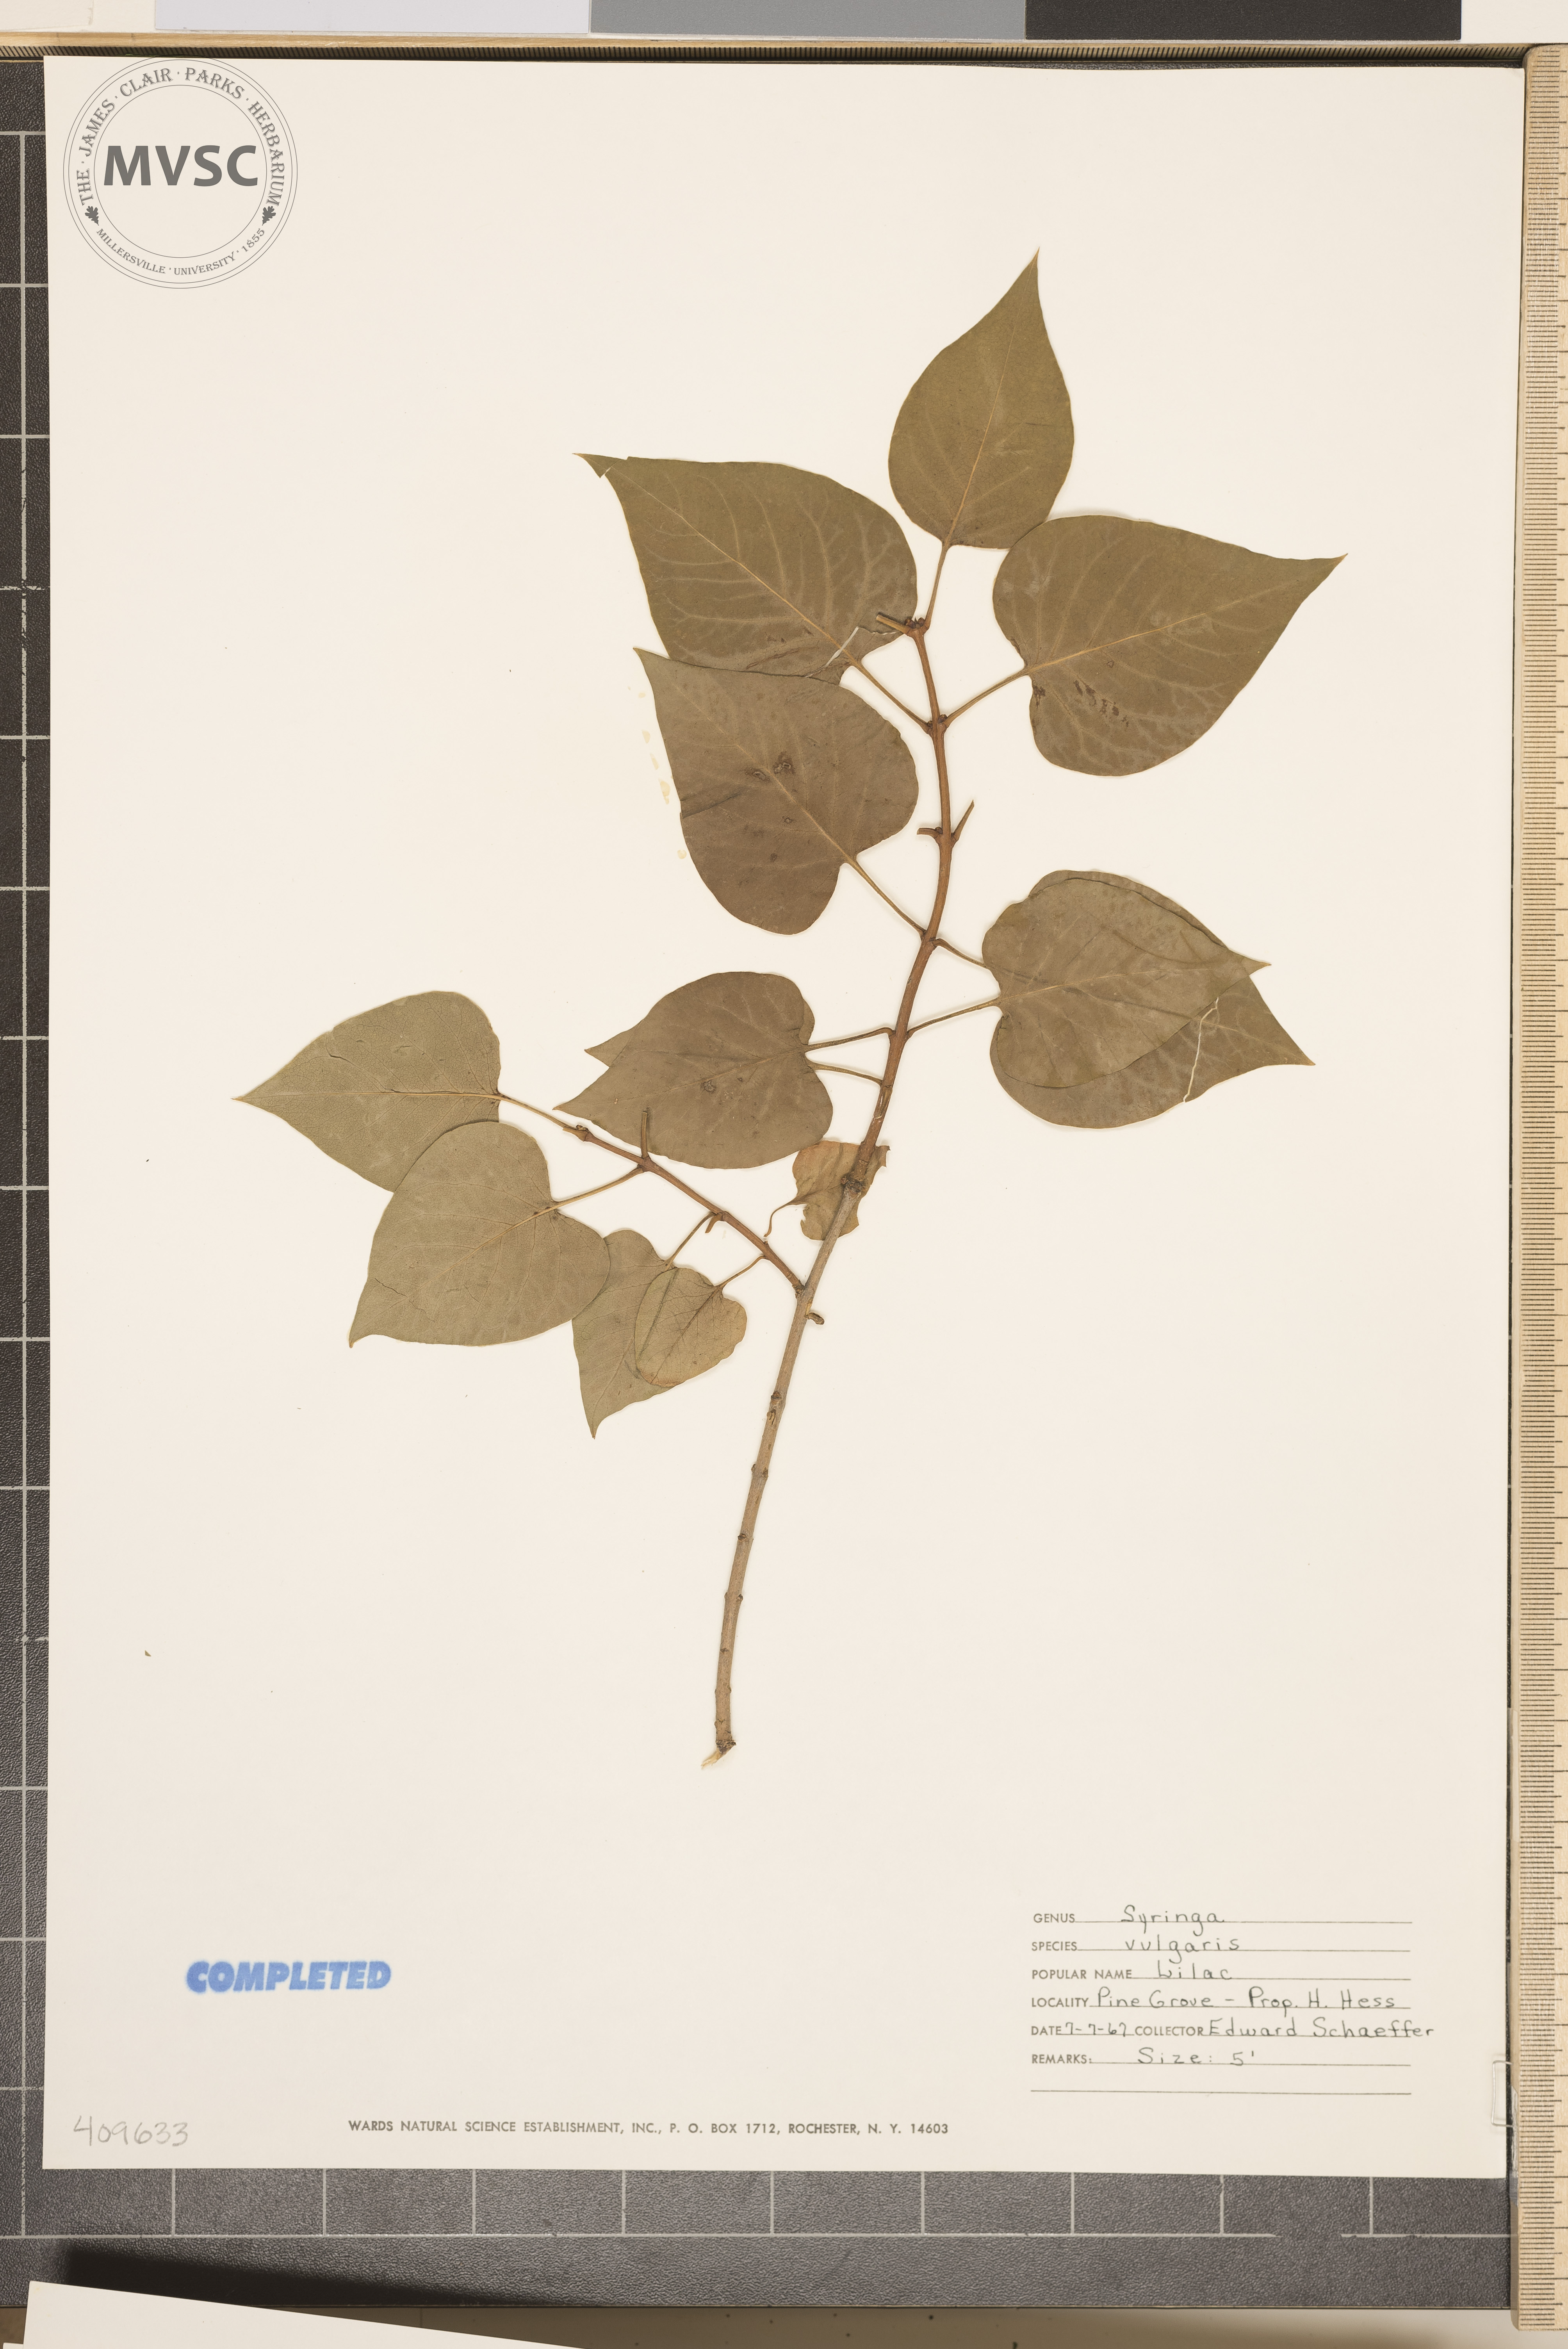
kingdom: Plantae
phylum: Tracheophyta
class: Magnoliopsida
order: Lamiales
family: Oleaceae
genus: Syringa
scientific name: Syringa vulgaris
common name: Common lilac
